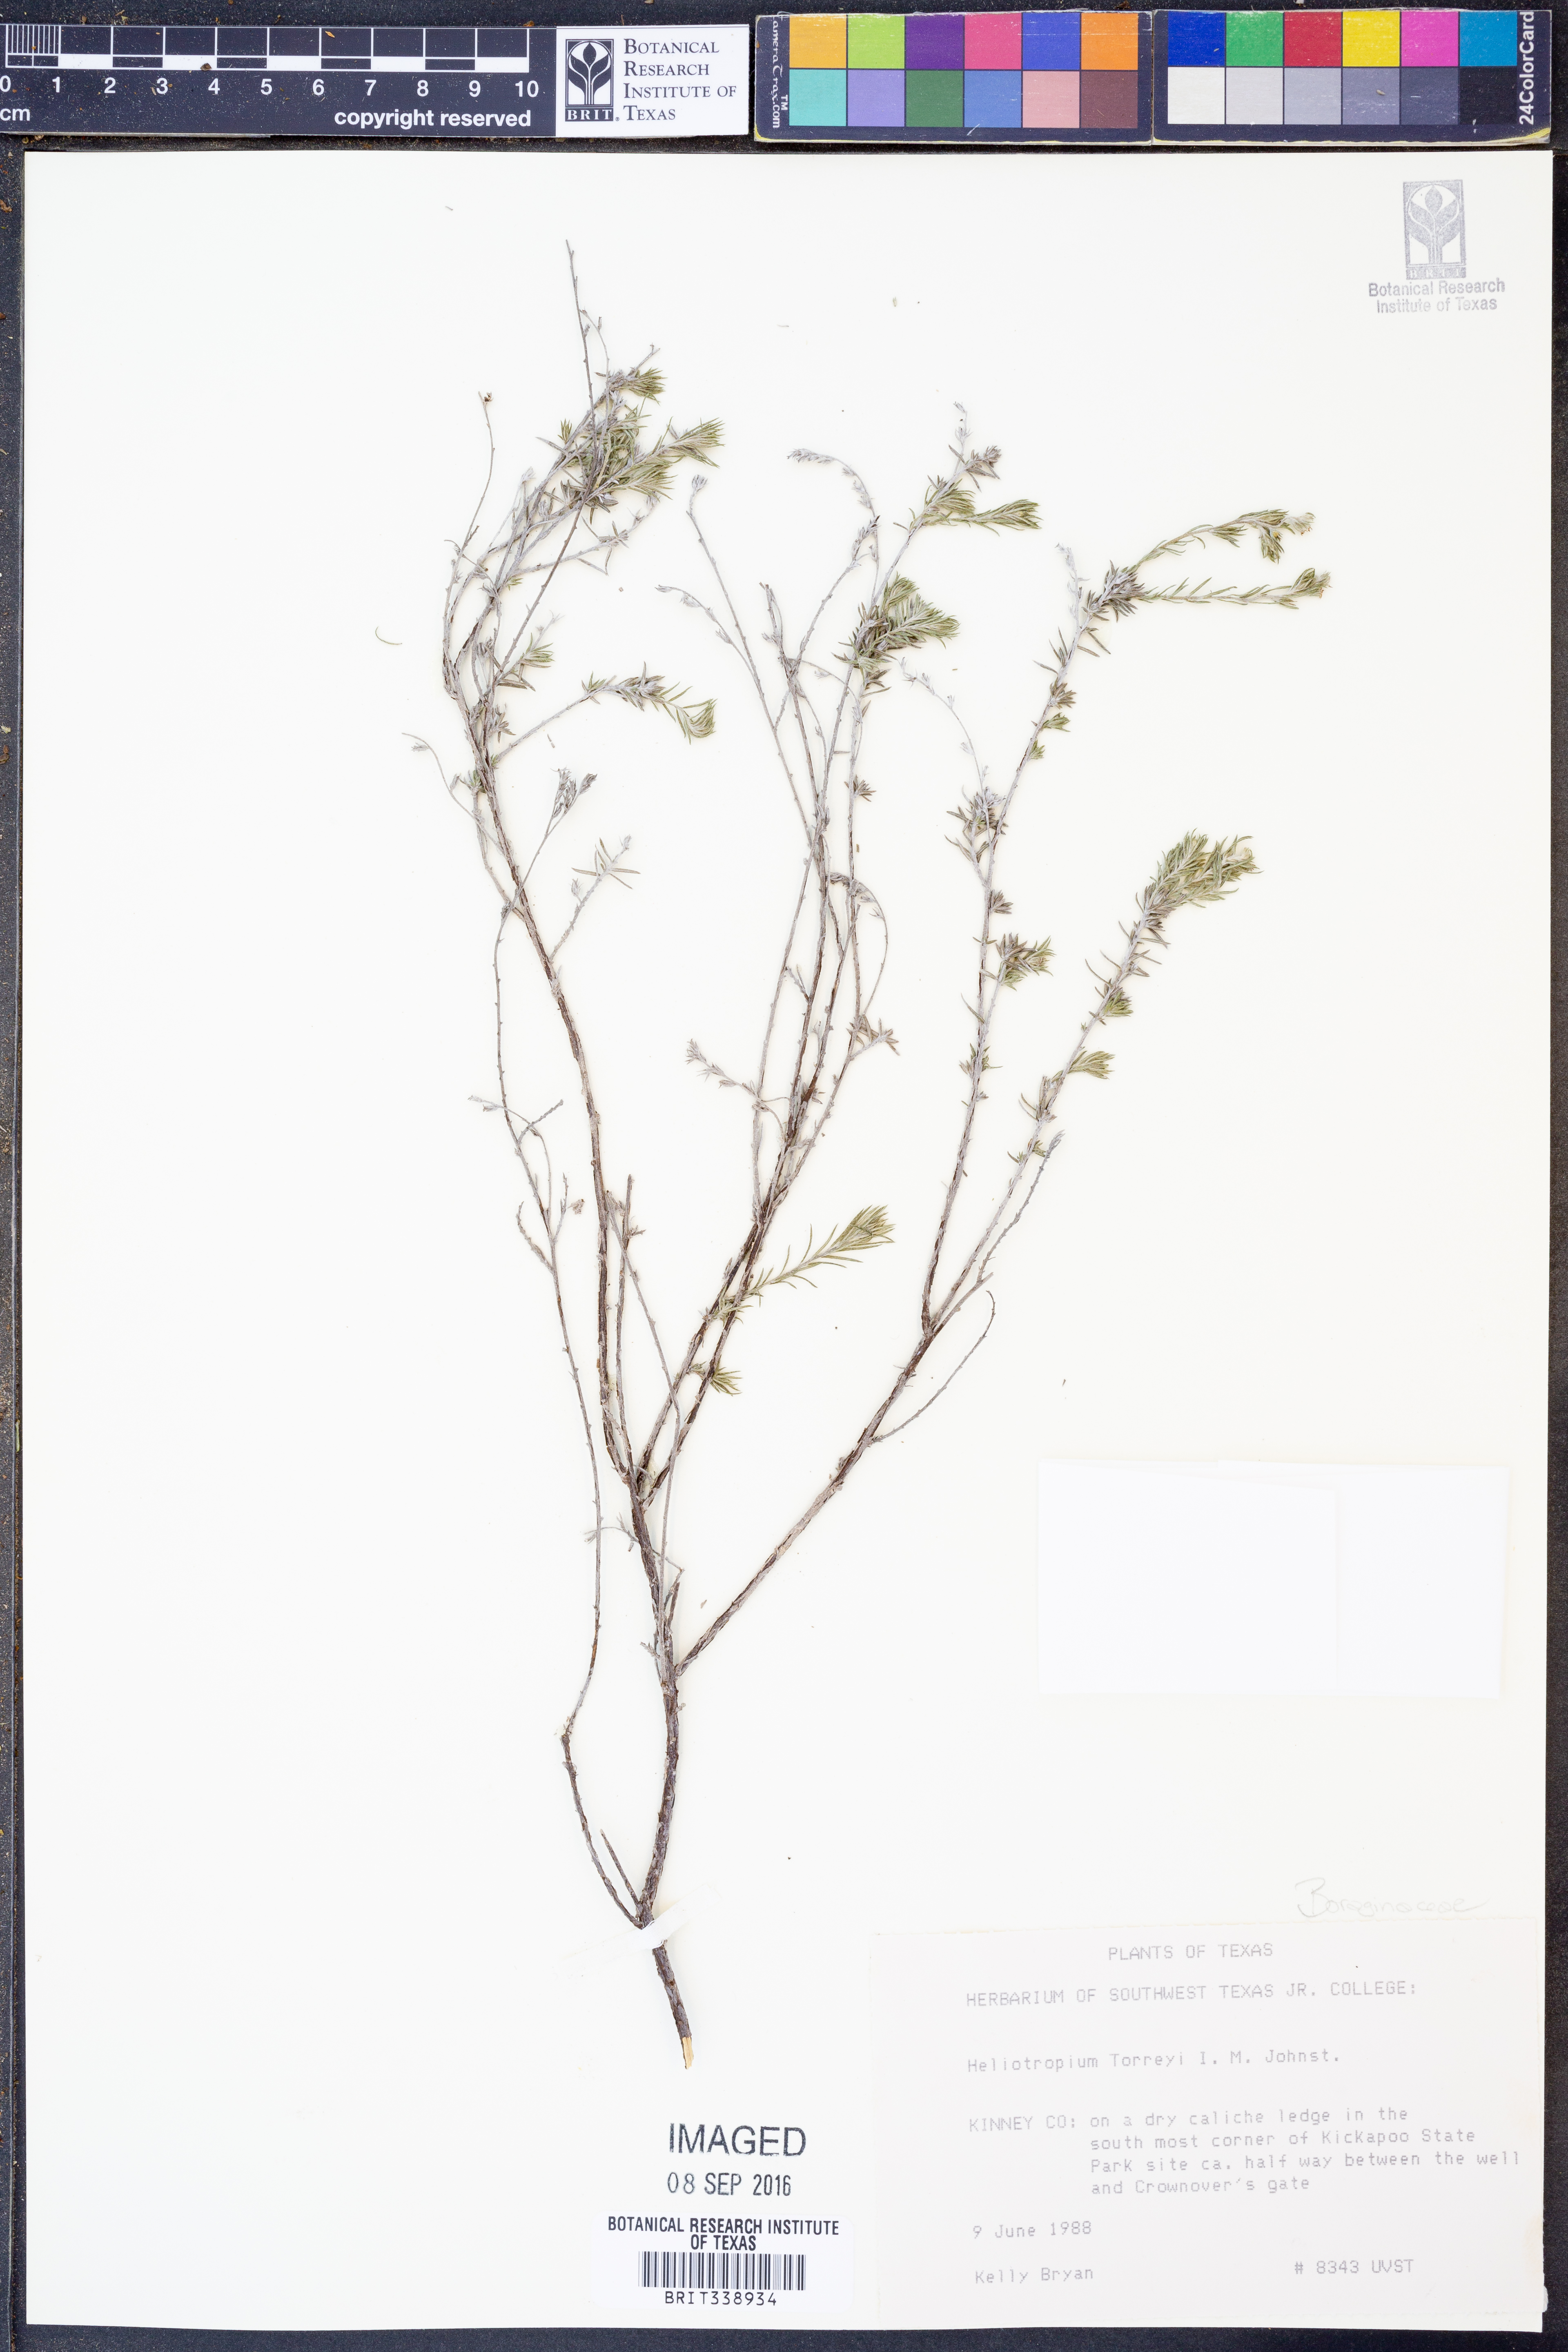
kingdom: Plantae
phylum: Tracheophyta
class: Magnoliopsida
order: Boraginales
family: Heliotropiaceae
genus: Euploca
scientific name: Euploca torreyi
